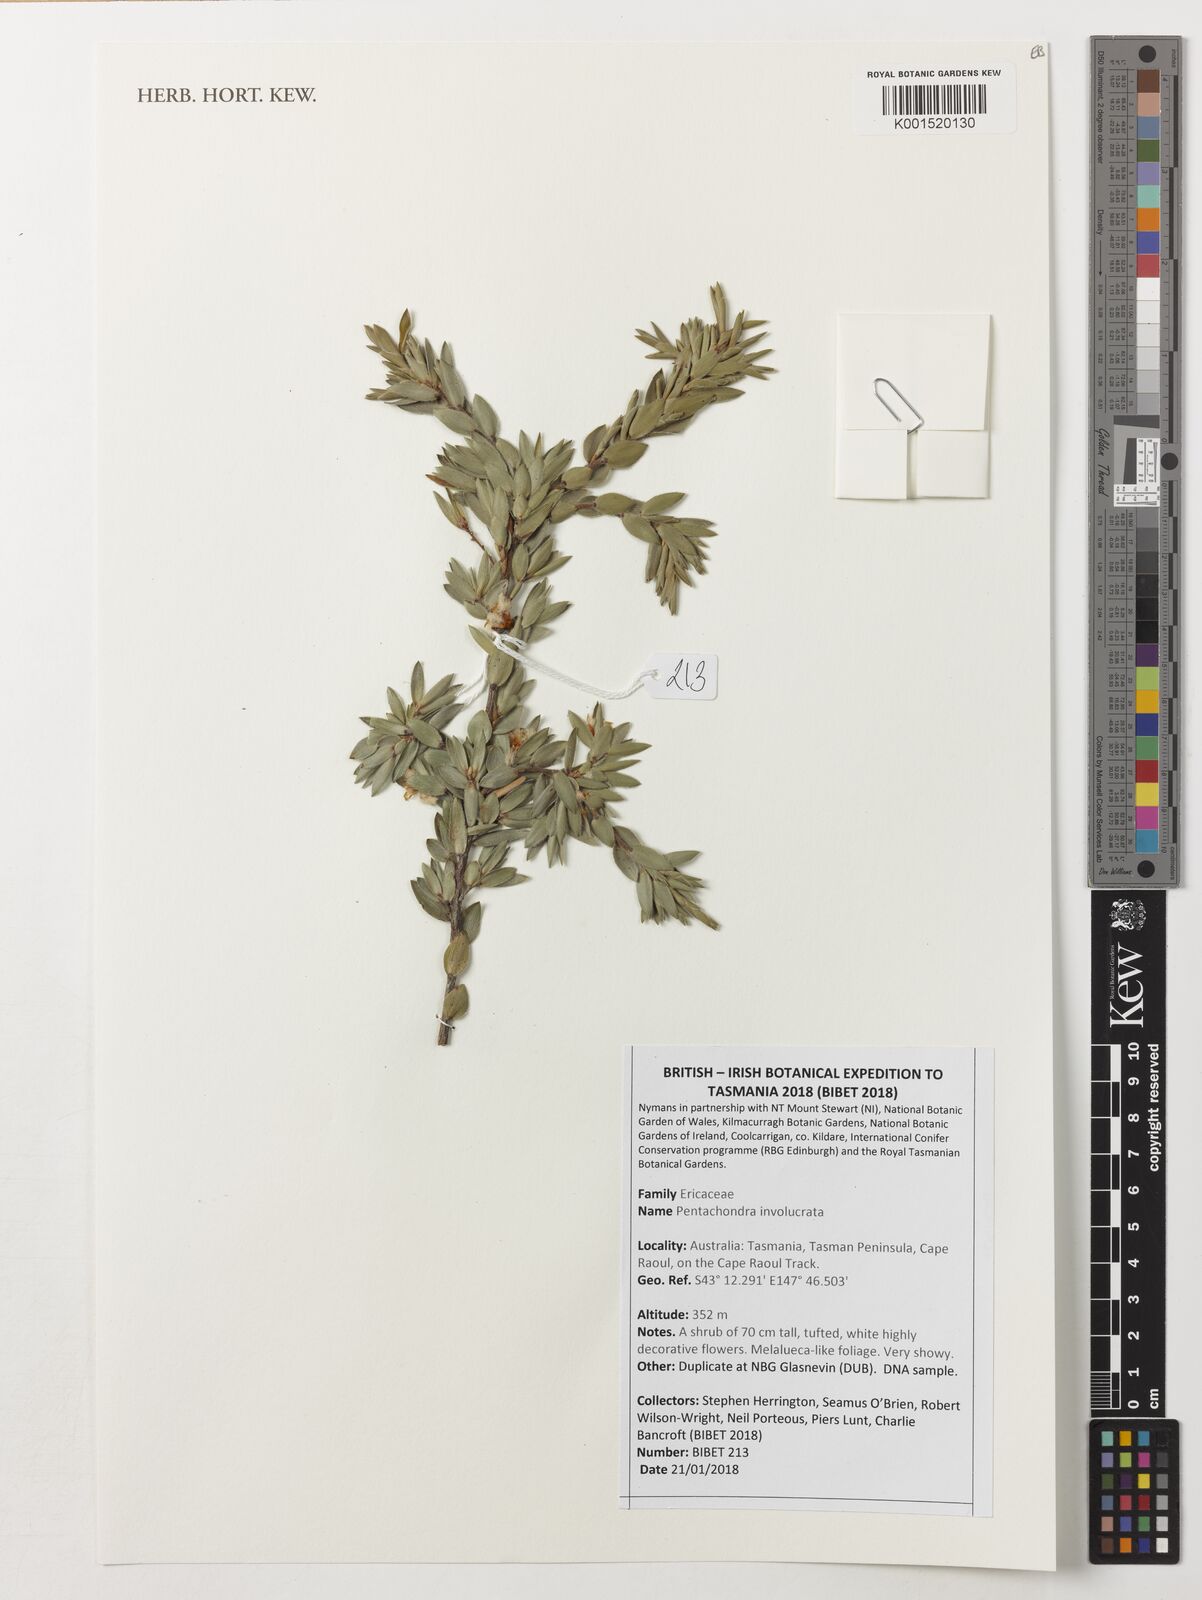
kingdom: Plantae
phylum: Tracheophyta
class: Magnoliopsida
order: Ericales
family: Ericaceae
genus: Pentachondra
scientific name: Pentachondra involucrata
